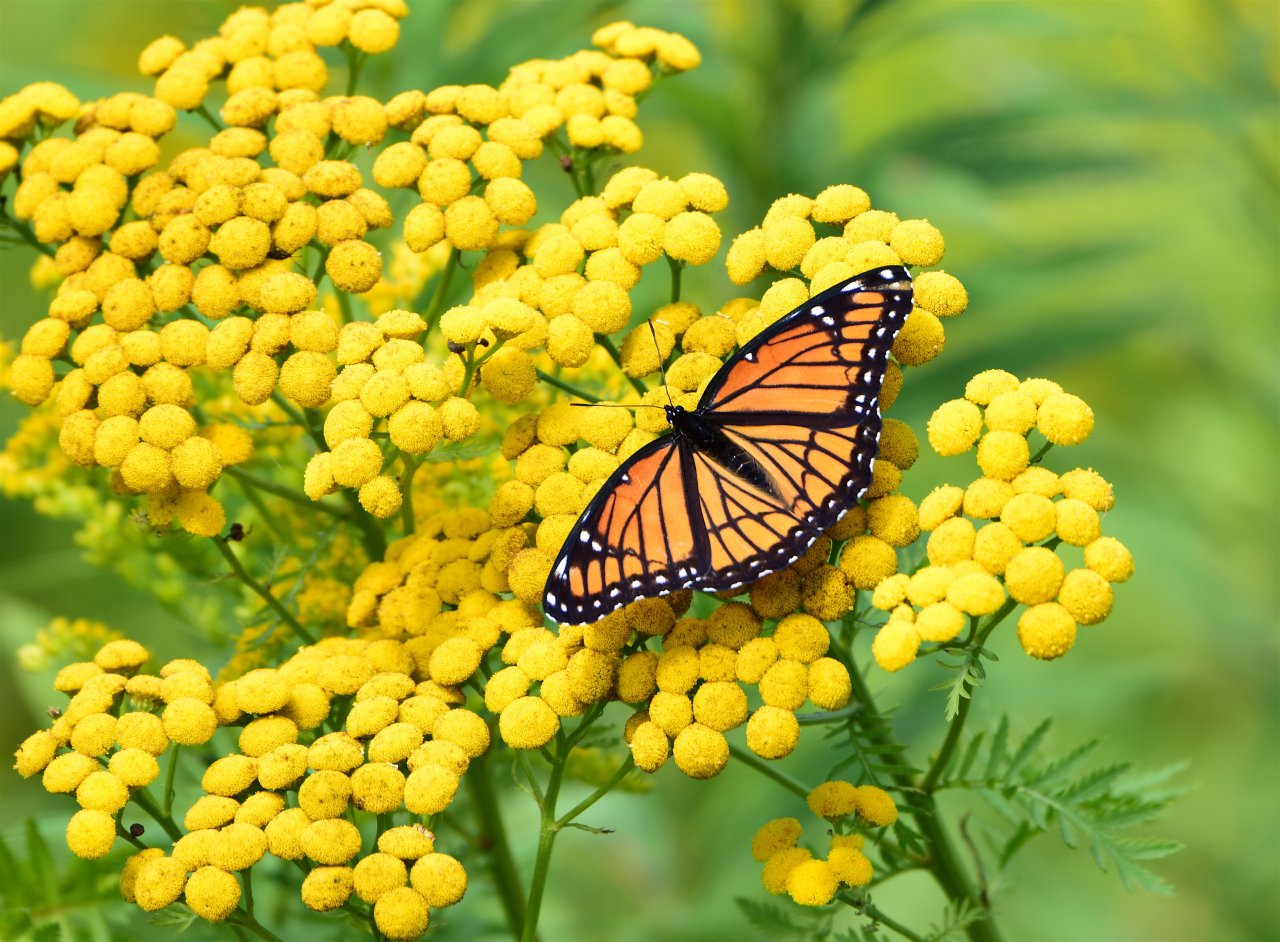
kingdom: Animalia
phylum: Arthropoda
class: Insecta
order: Lepidoptera
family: Nymphalidae
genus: Limenitis
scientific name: Limenitis archippus
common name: Viceroy
